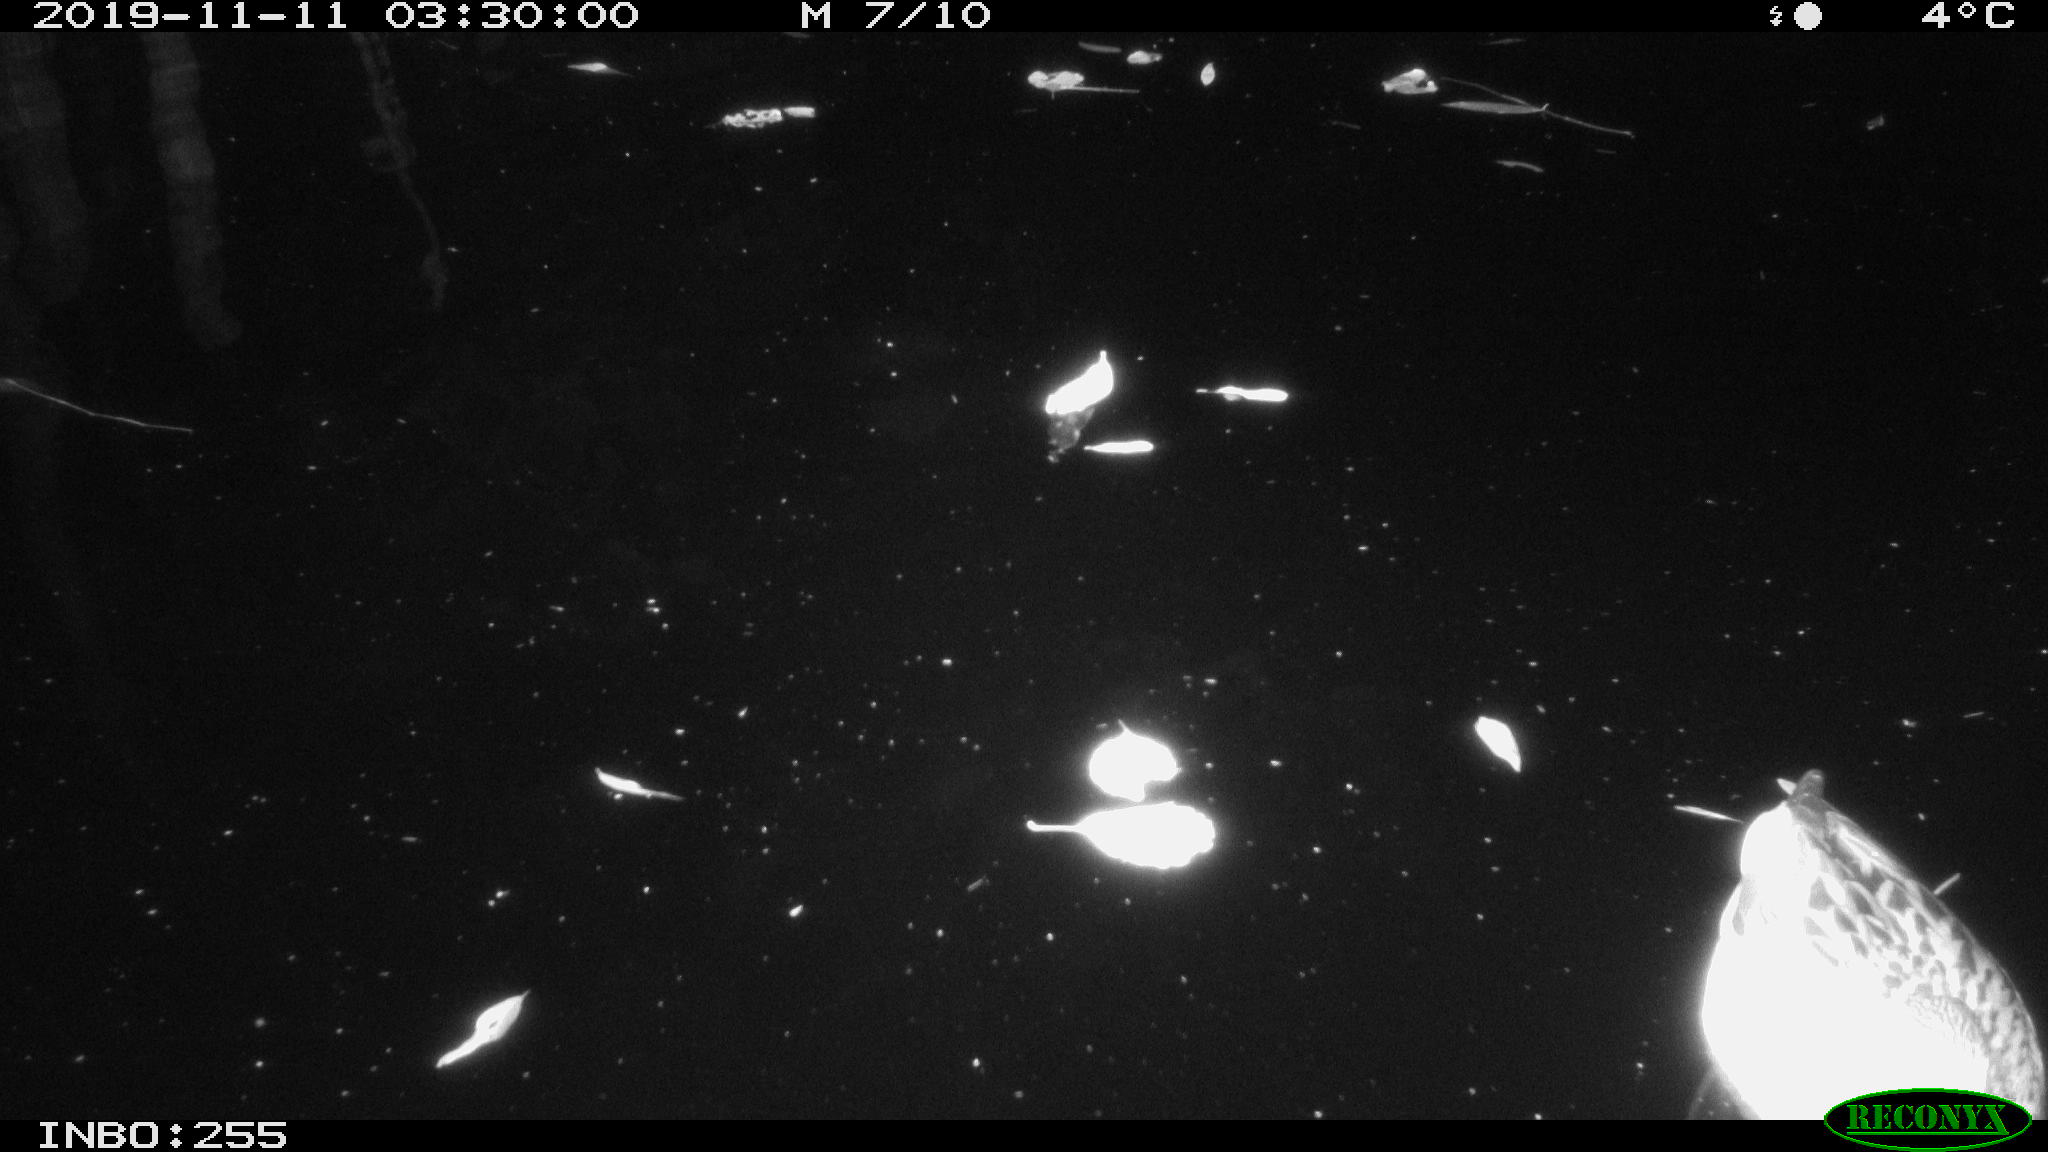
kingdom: Animalia
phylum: Chordata
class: Aves
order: Anseriformes
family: Anatidae
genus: Anas
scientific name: Anas platyrhynchos
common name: Mallard
